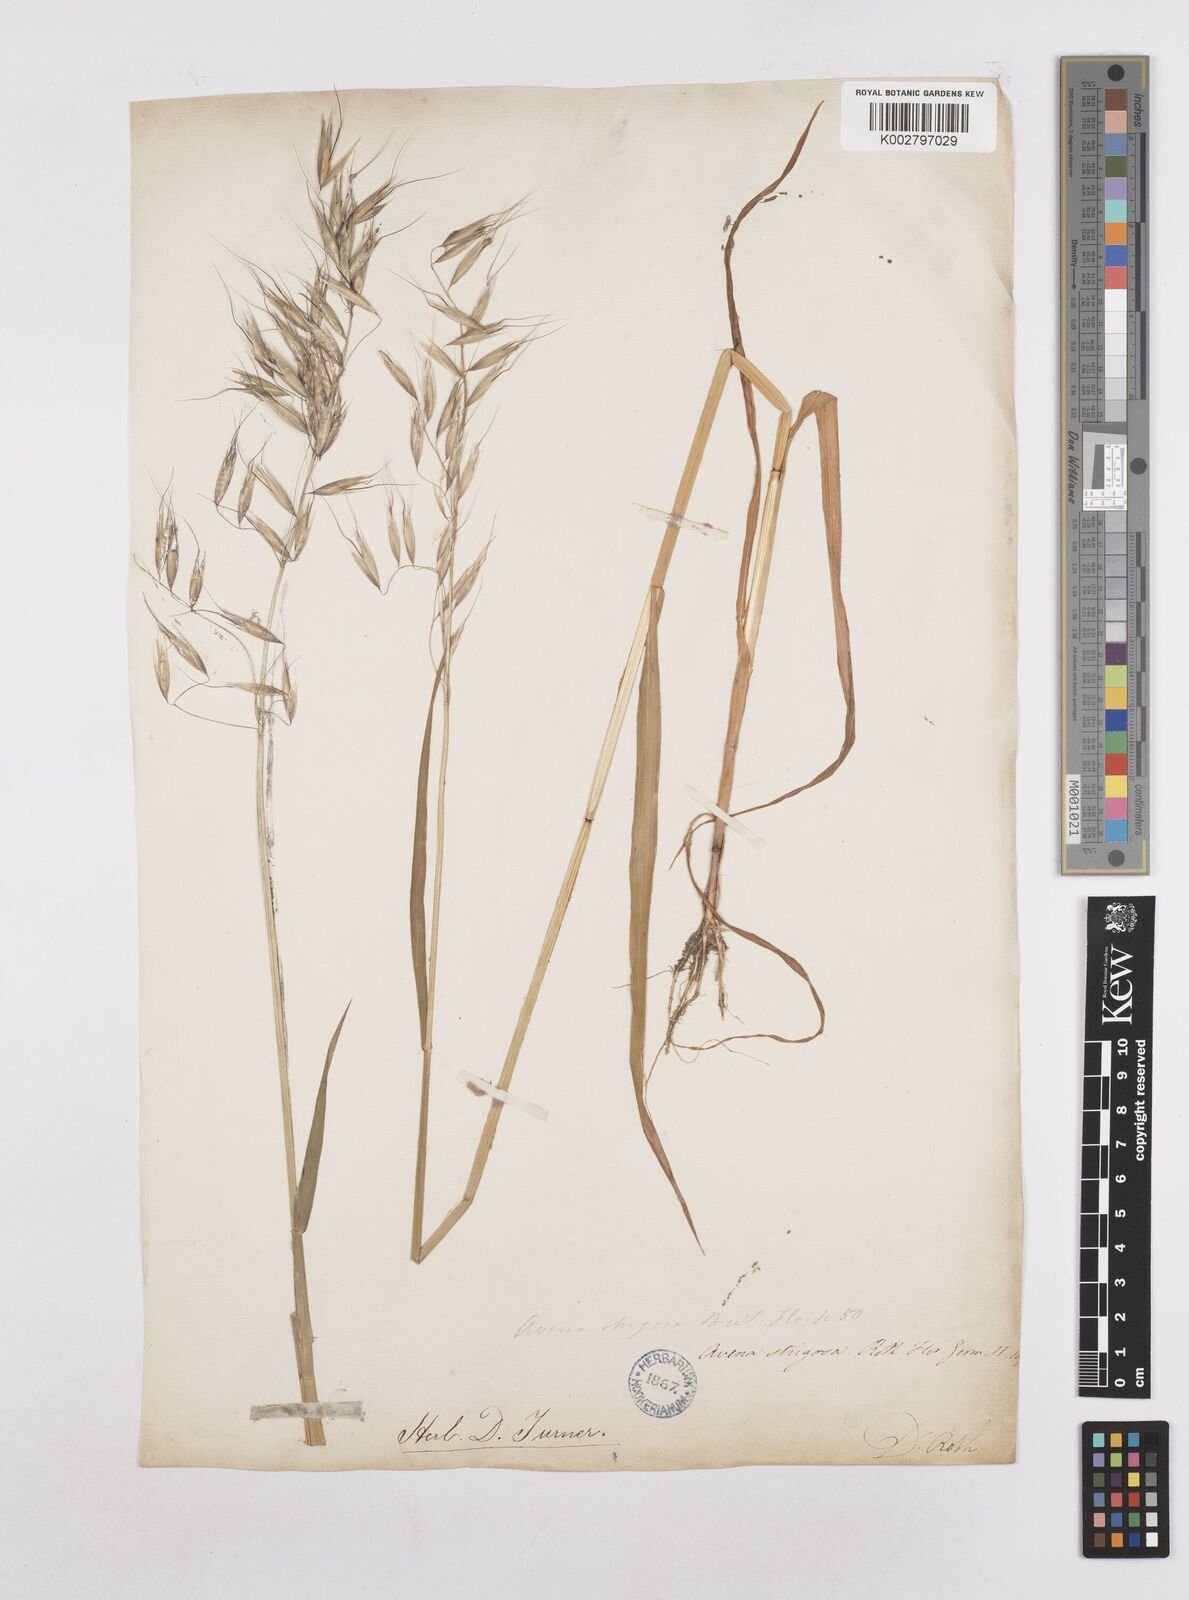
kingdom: Plantae
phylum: Tracheophyta
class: Liliopsida
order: Poales
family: Poaceae
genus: Avena
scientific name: Avena strigosa
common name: Bristle oat
